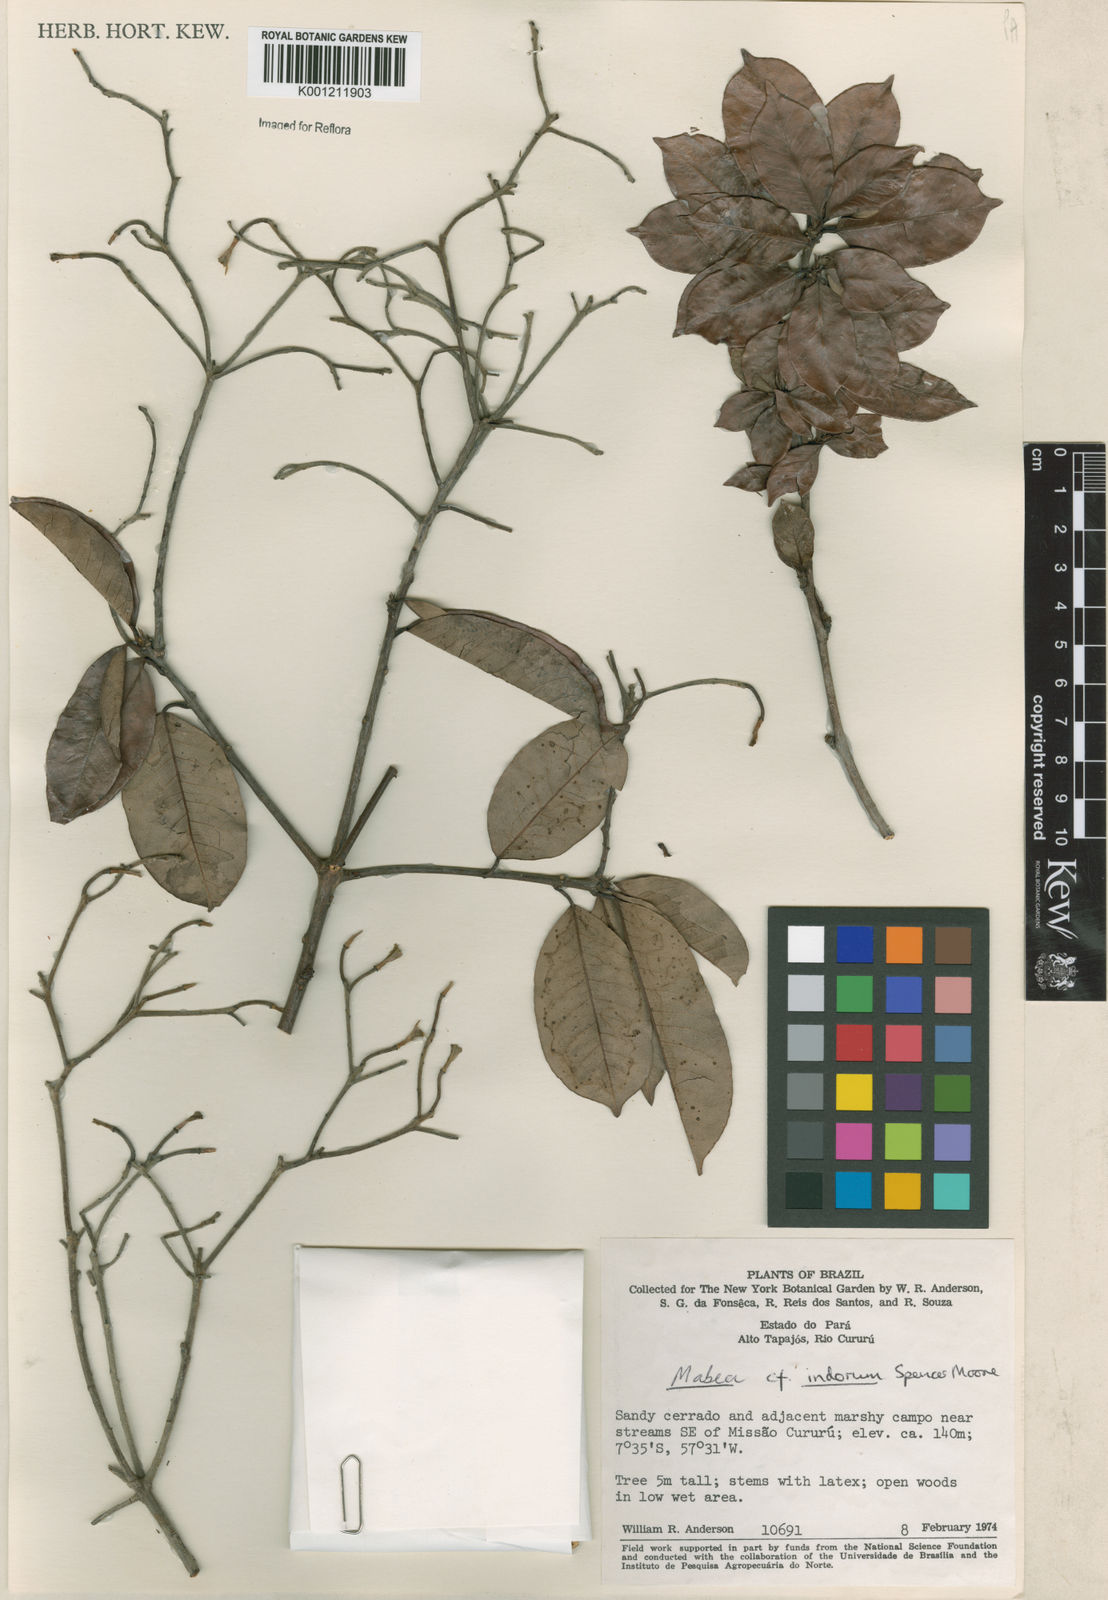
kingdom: Plantae
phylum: Tracheophyta
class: Magnoliopsida
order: Malpighiales
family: Euphorbiaceae
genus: Mabea
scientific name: Mabea paniculata
